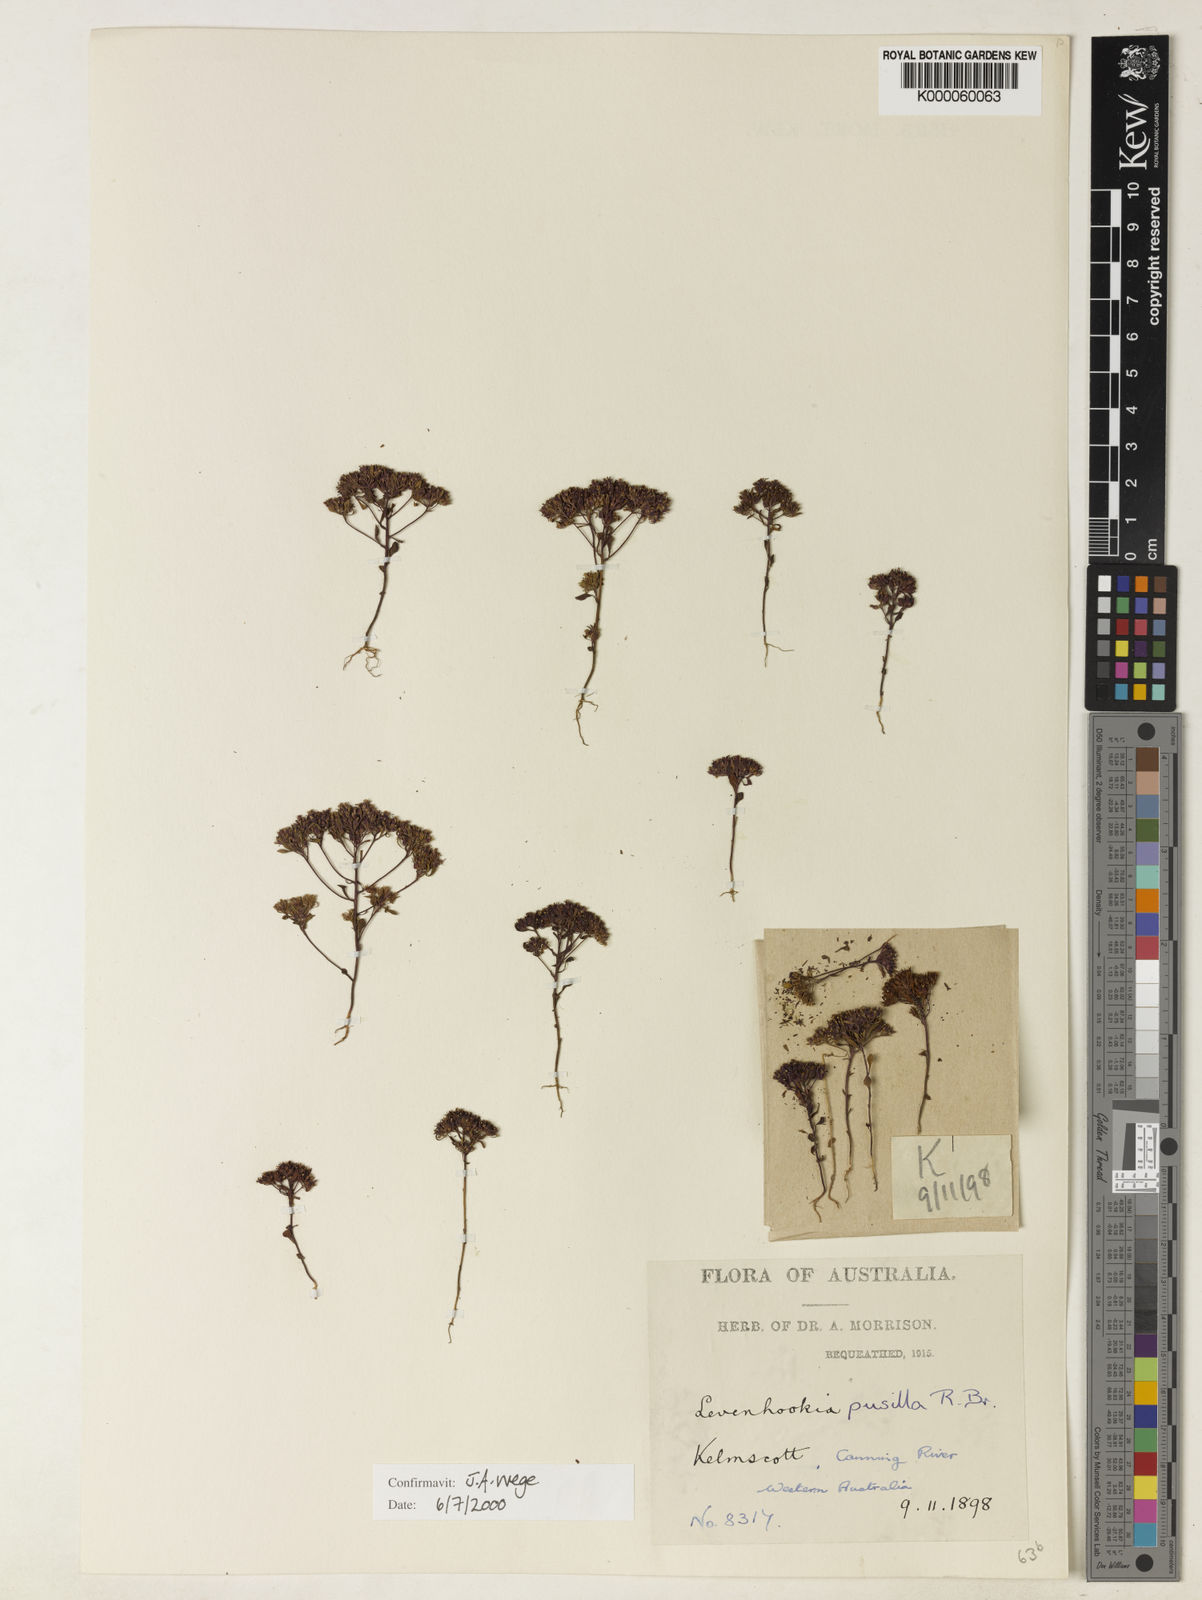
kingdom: Plantae
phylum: Tracheophyta
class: Magnoliopsida
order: Asterales
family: Stylidiaceae
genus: Levenhookia
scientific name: Levenhookia pusilla
